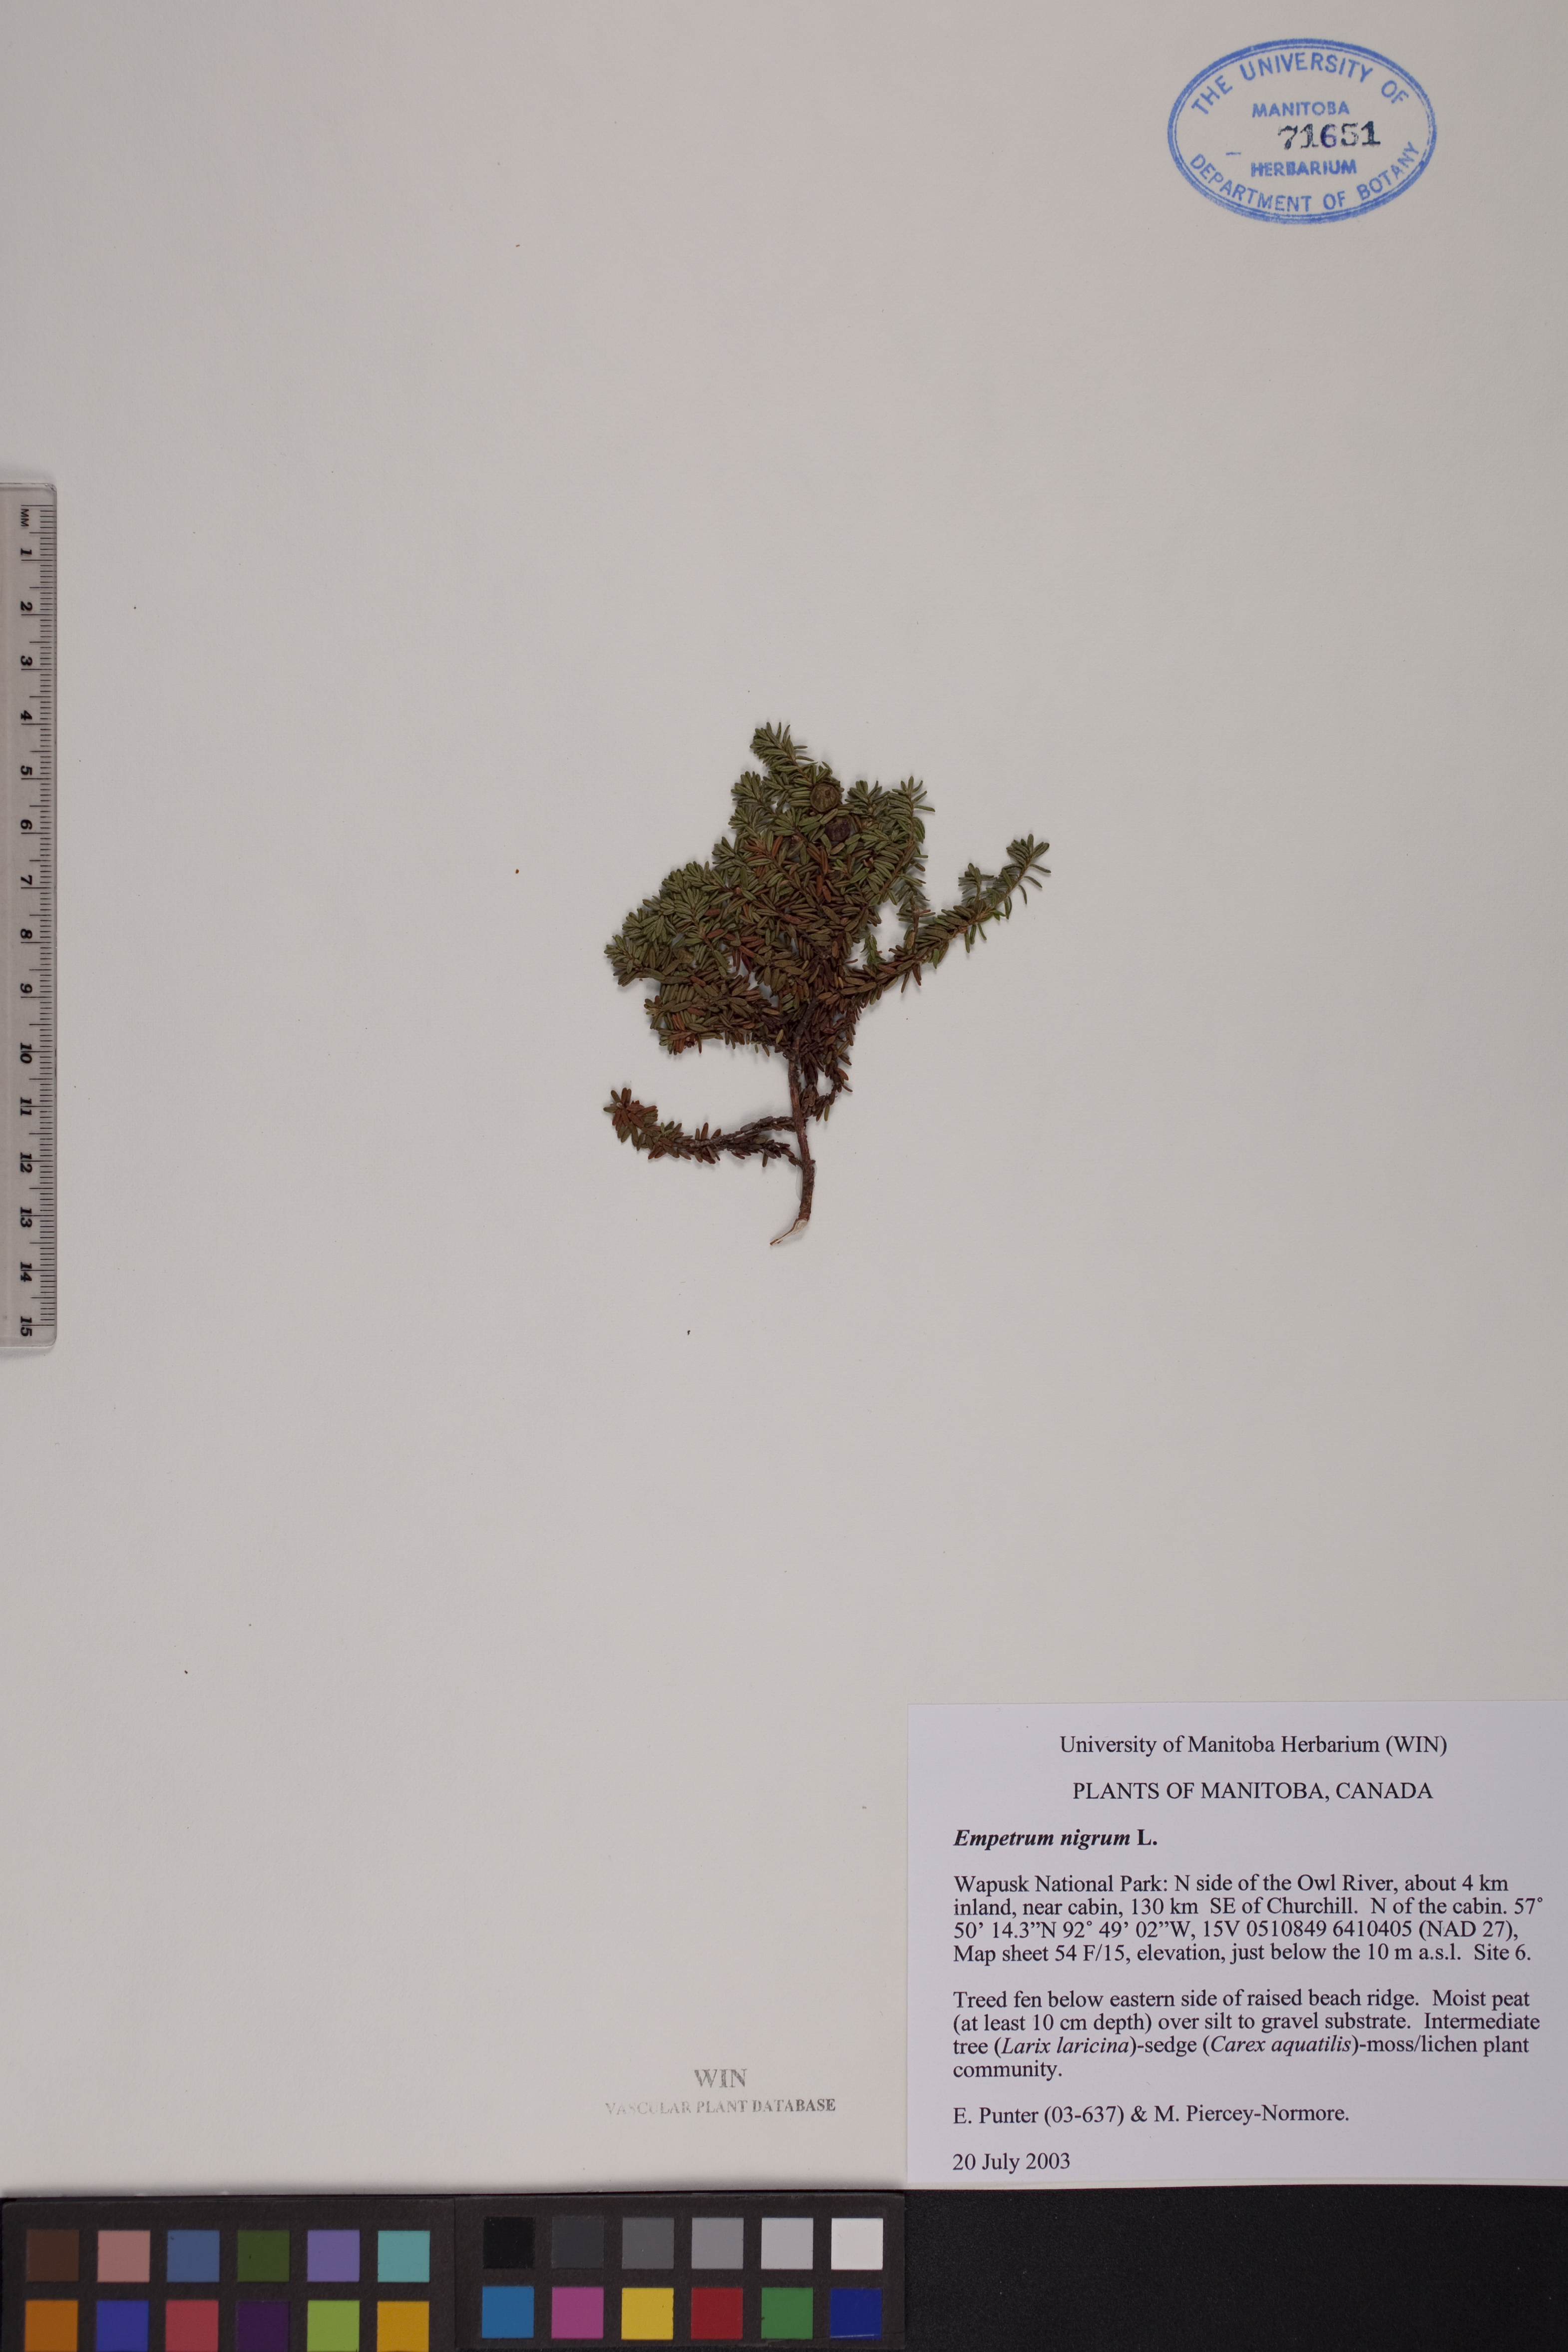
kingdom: Plantae
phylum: Tracheophyta
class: Magnoliopsida
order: Ericales
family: Ericaceae
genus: Empetrum
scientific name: Empetrum nigrum
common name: Black crowberry
